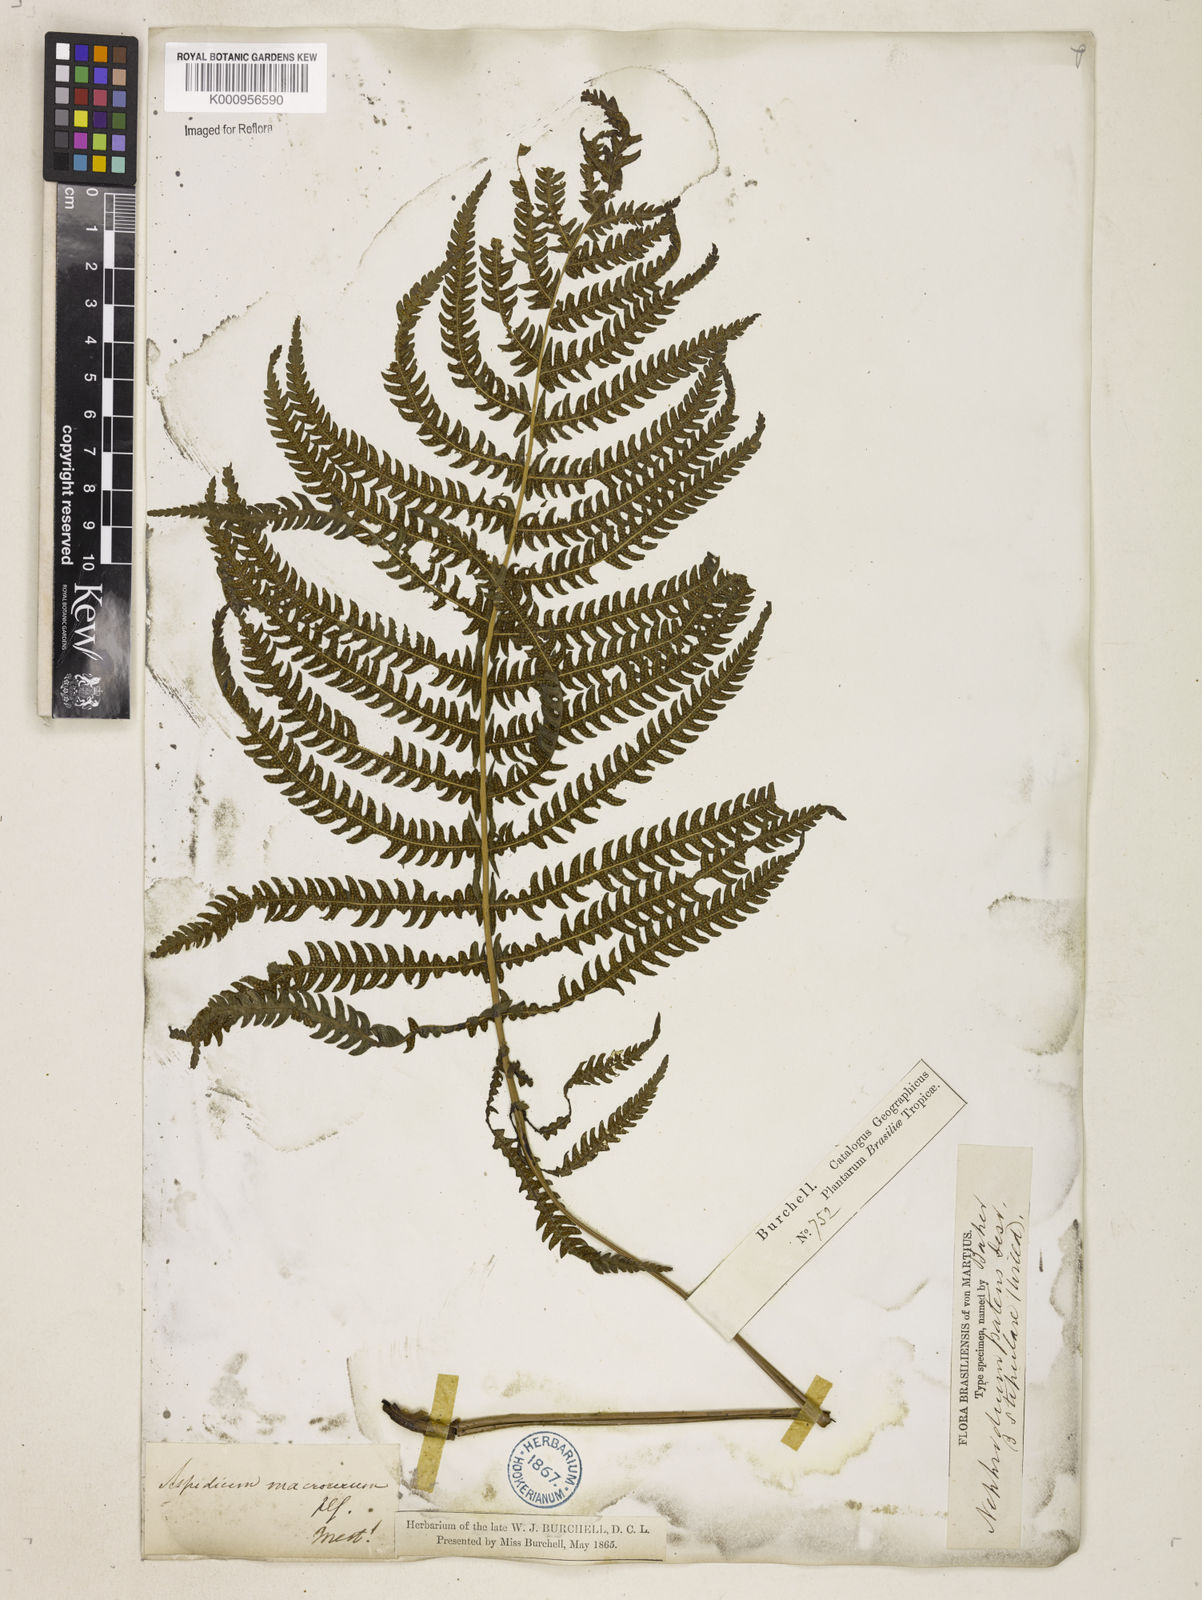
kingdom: Plantae
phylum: Tracheophyta
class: Polypodiopsida
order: Polypodiales
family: Thelypteridaceae
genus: Pelazoneuron
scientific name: Pelazoneuron patens
